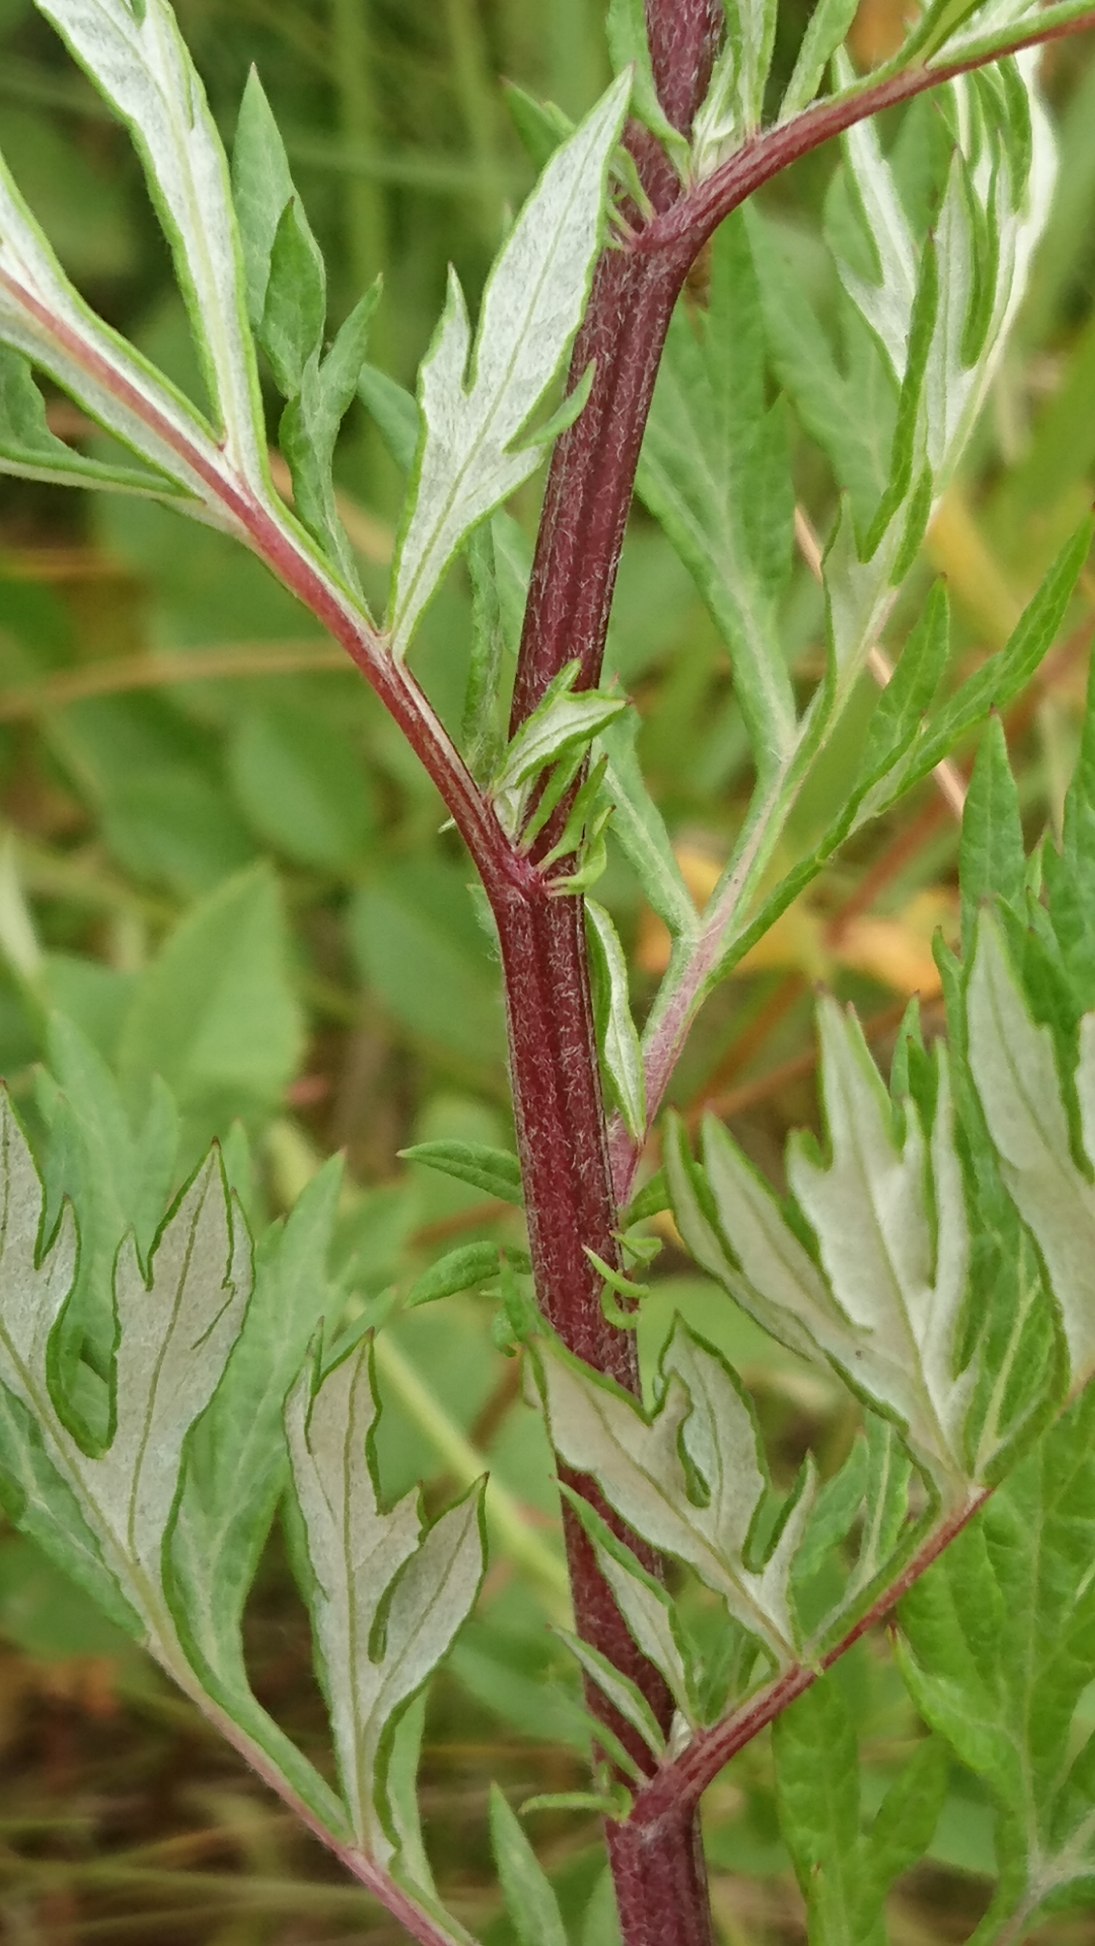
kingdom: Plantae
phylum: Tracheophyta
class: Magnoliopsida
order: Asterales
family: Asteraceae
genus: Artemisia
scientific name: Artemisia vulgaris
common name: Grå-bynke
